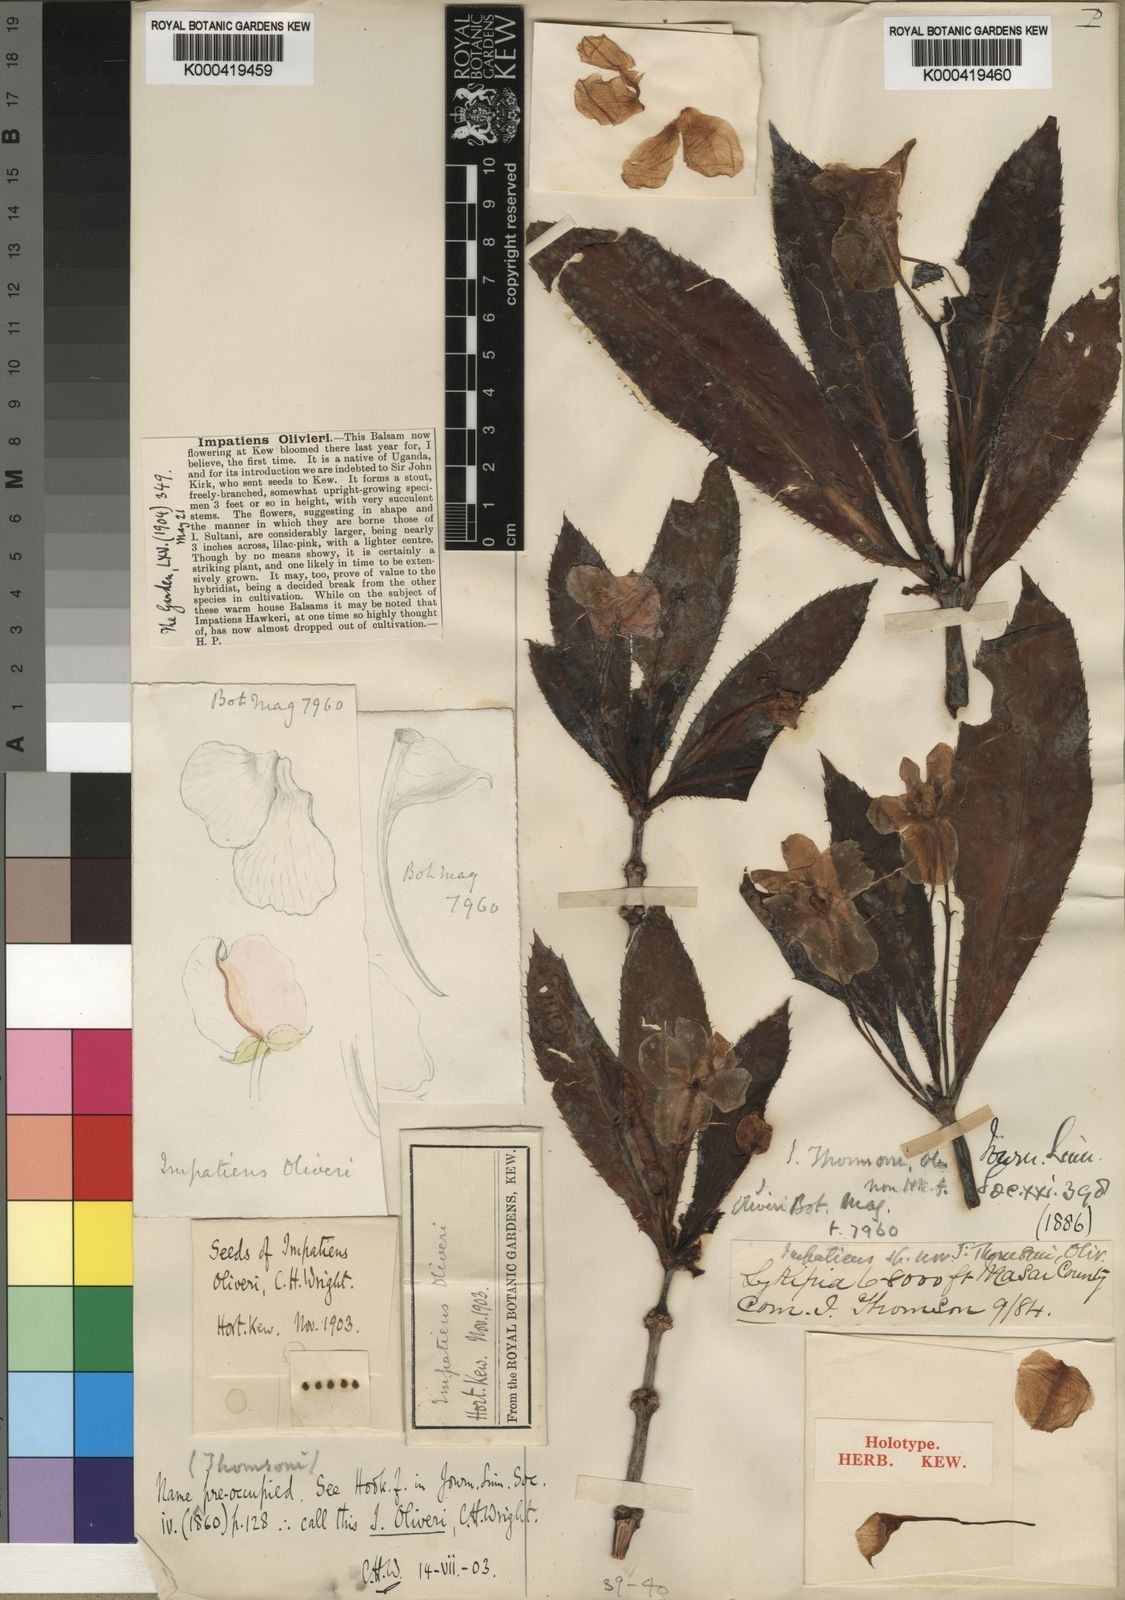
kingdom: Plantae
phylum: Tracheophyta
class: Magnoliopsida
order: Ericales
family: Balsaminaceae
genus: Impatiens
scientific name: Impatiens sodenii
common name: Oliver's touch-me-not
